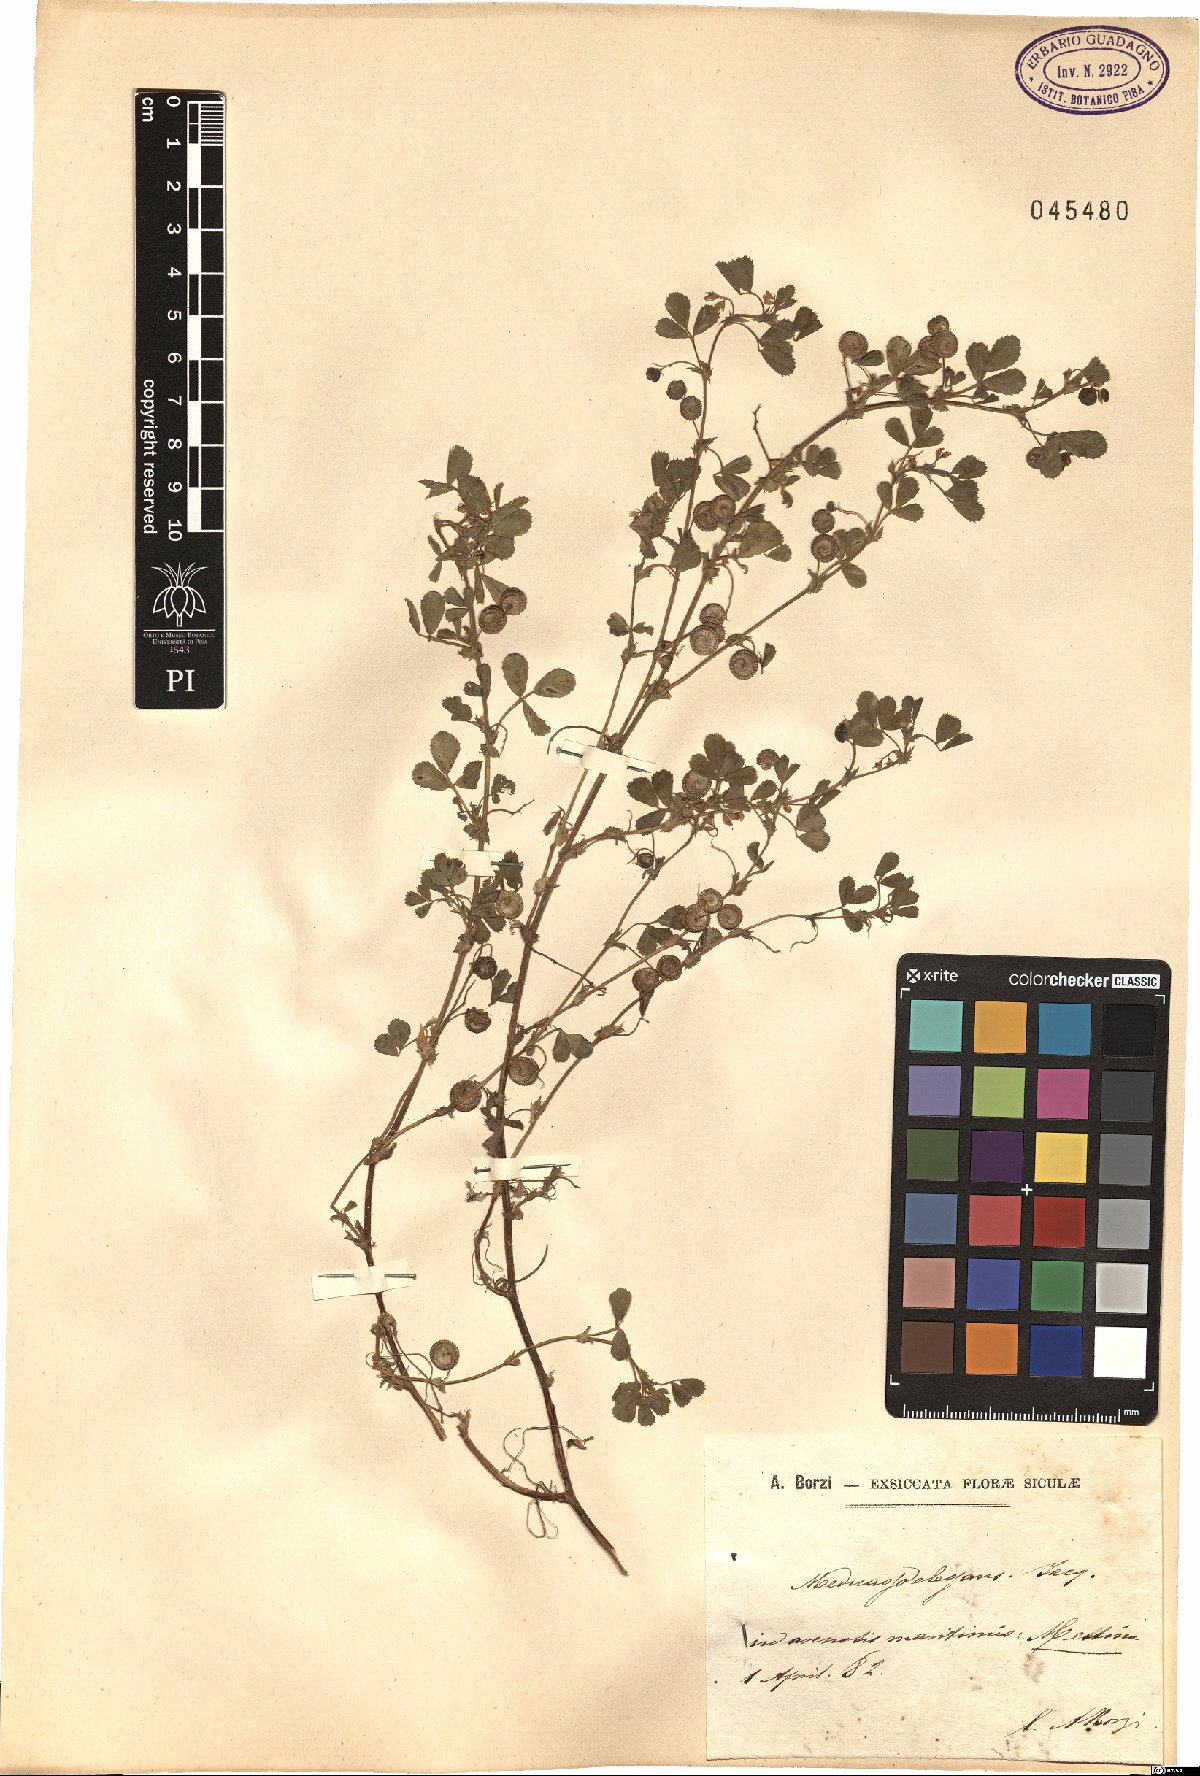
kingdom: Plantae
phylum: Tracheophyta
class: Magnoliopsida
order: Fabales
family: Fabaceae
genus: Medicago
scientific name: Medicago rugosa
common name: Gama medic
